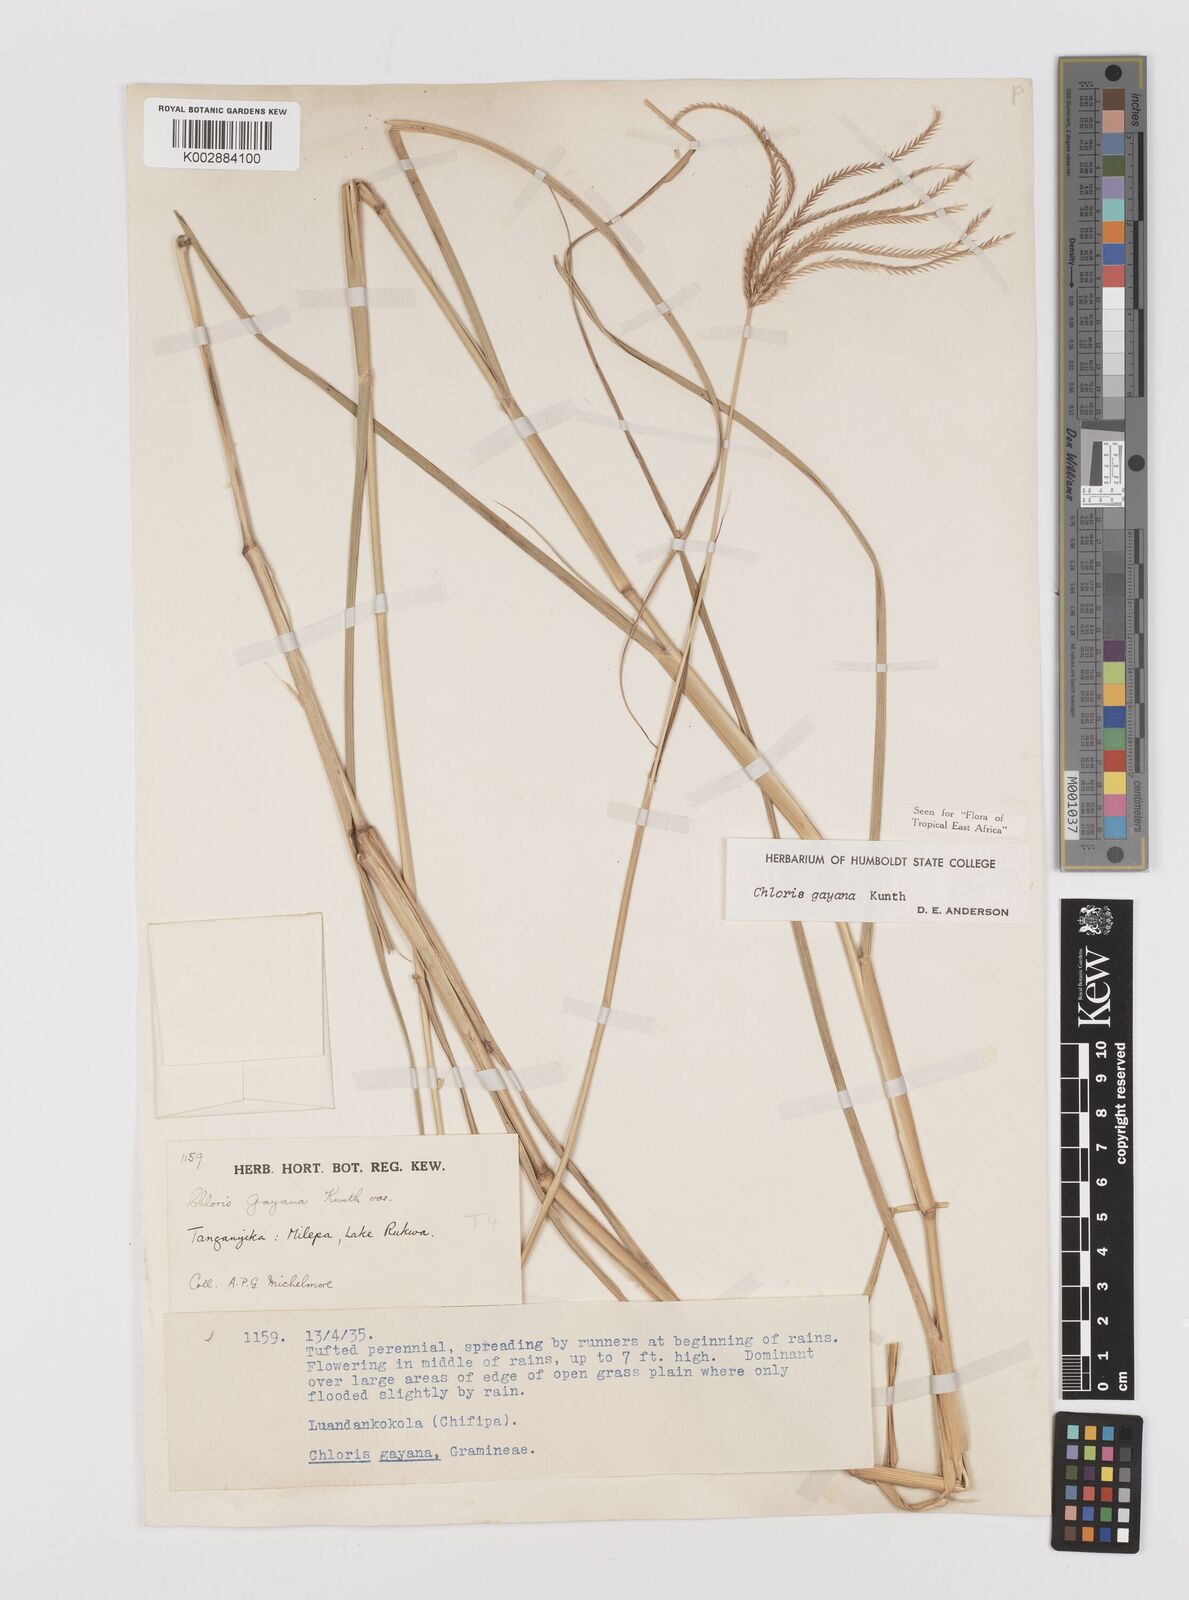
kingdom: Plantae
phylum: Tracheophyta
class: Liliopsida
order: Poales
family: Poaceae
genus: Chloris
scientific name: Chloris gayana
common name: Rhodes grass
